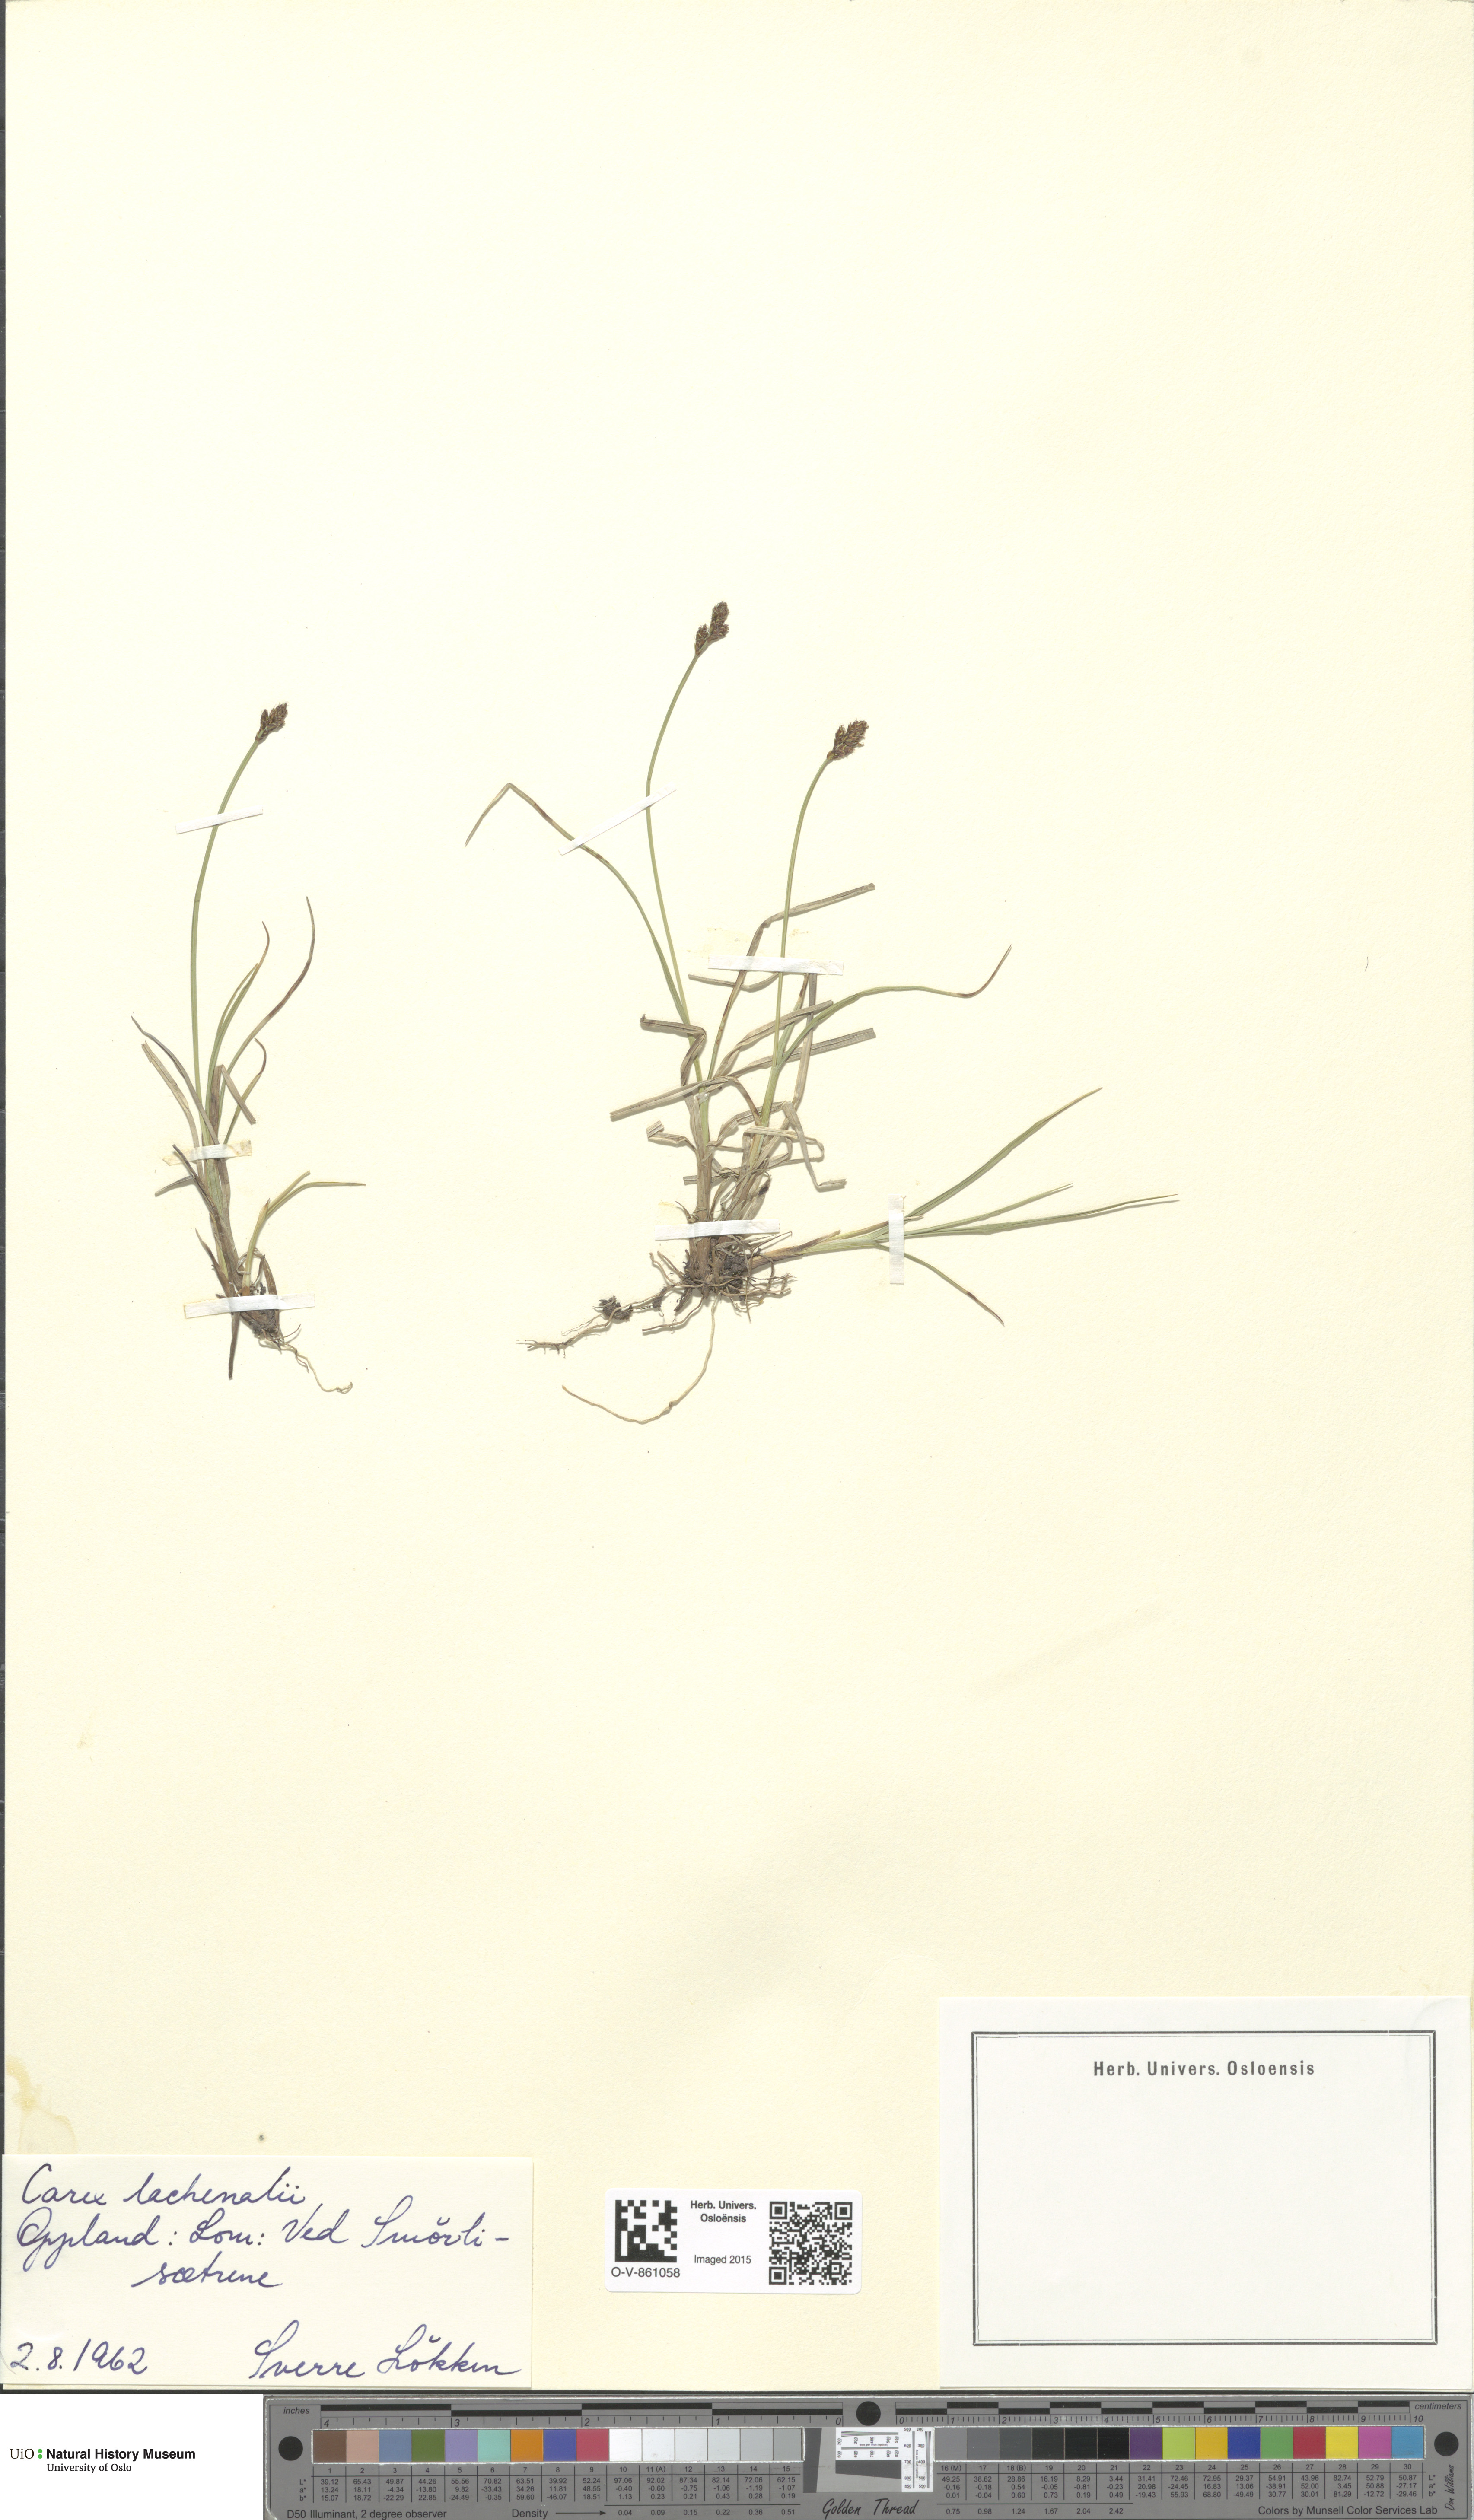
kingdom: Plantae
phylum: Tracheophyta
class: Liliopsida
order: Poales
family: Cyperaceae
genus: Carex
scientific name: Carex lachenalii
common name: Hare's-foot sedge
